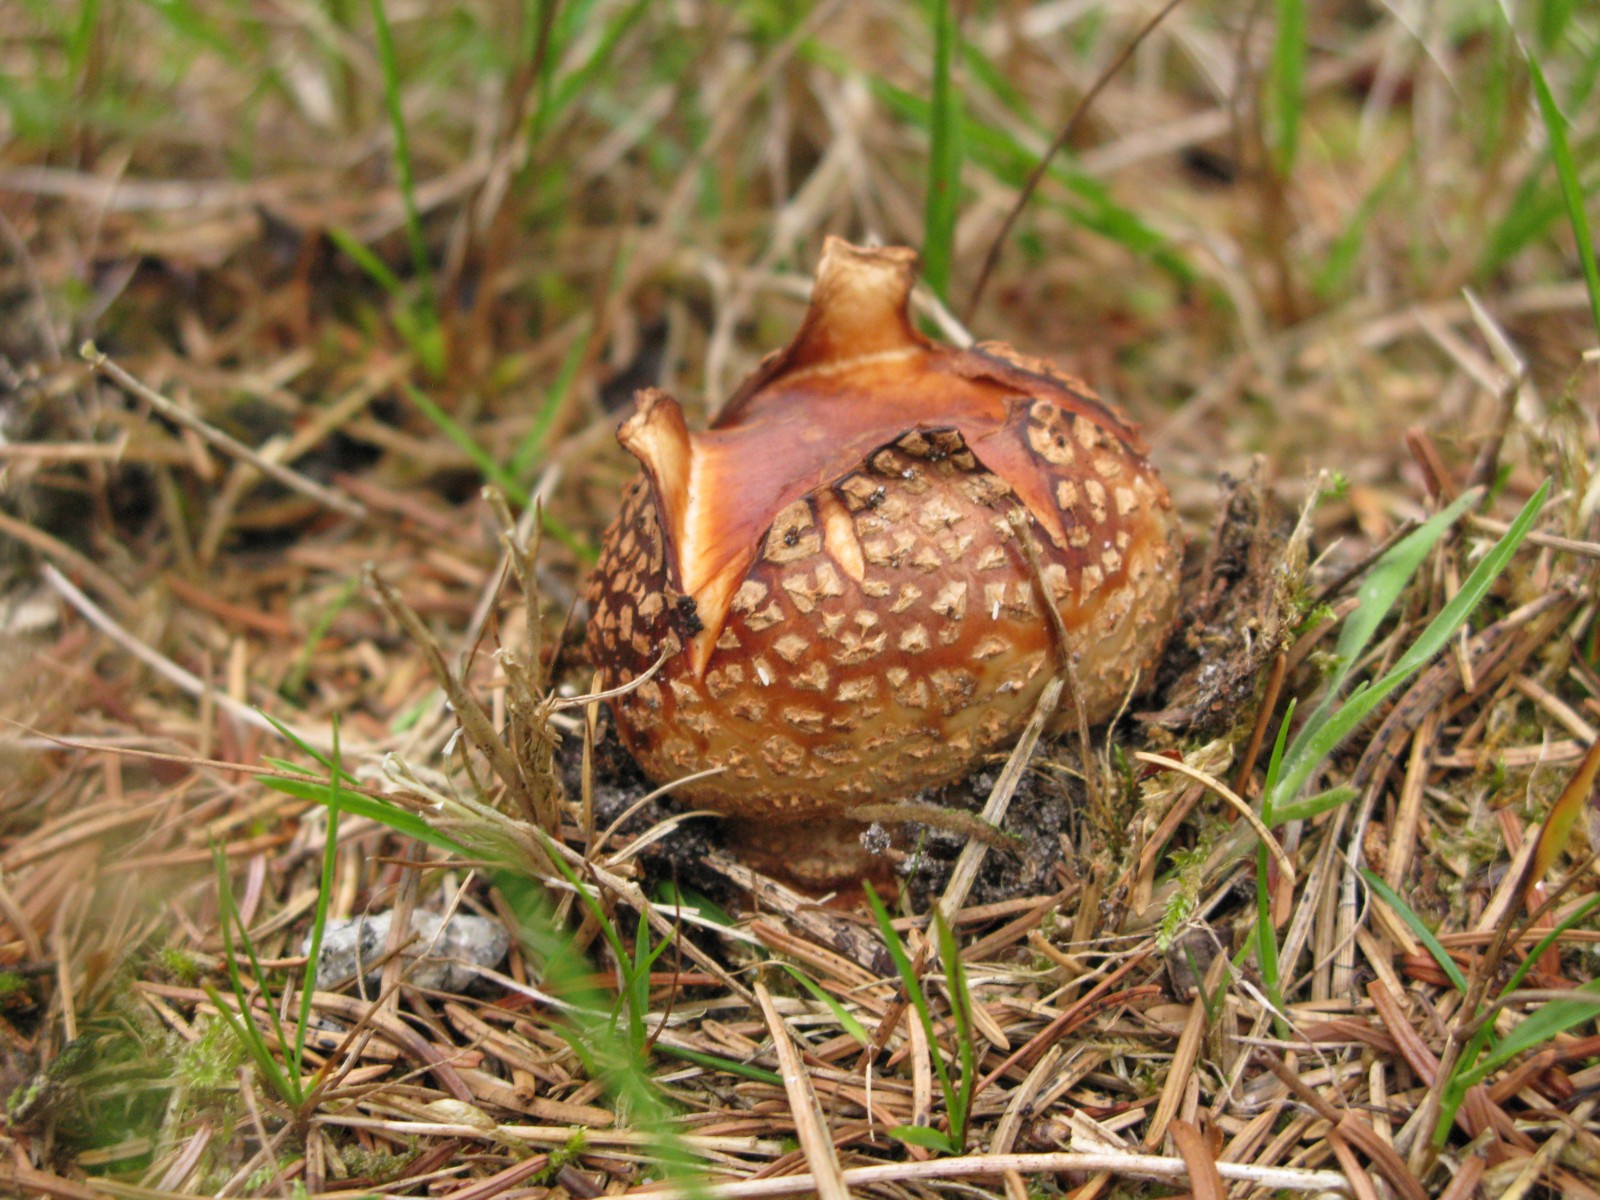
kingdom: Fungi
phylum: Basidiomycota
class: Agaricomycetes
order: Boletales
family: Sclerodermataceae
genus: Scleroderma
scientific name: Scleroderma
